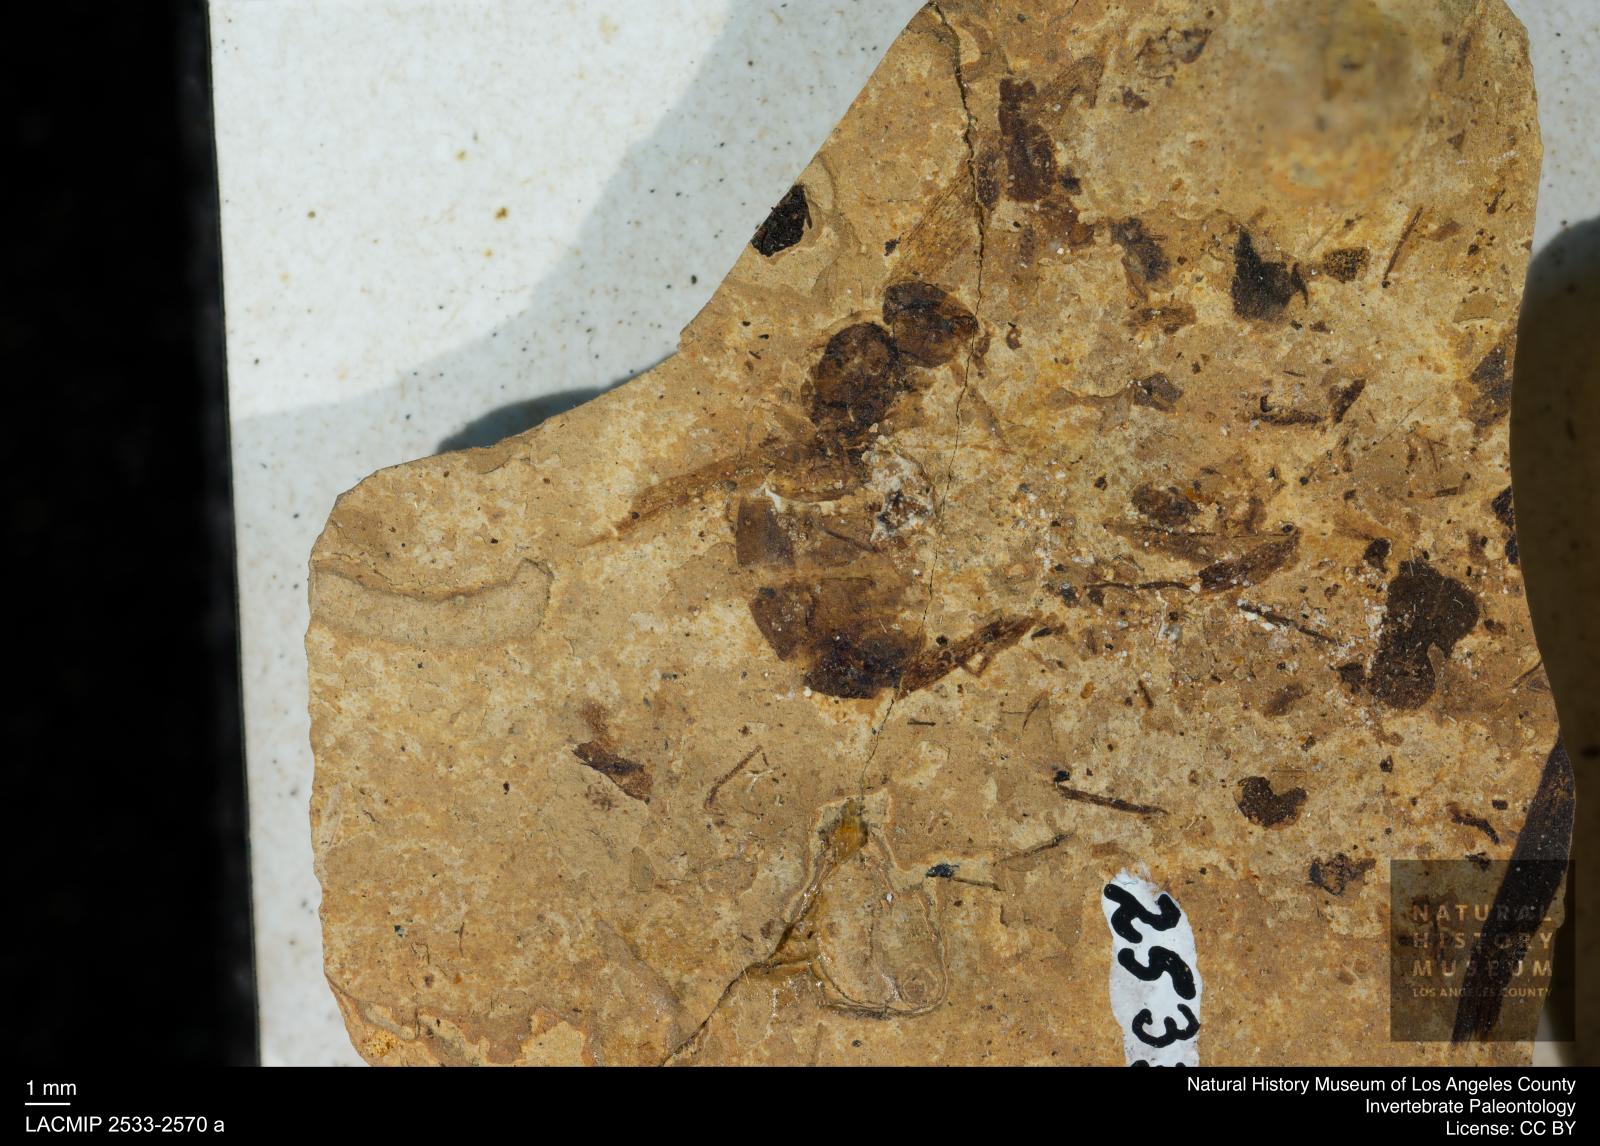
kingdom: Animalia
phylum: Arthropoda
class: Insecta
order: Hymenoptera
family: Formicidae
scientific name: Formicidae
